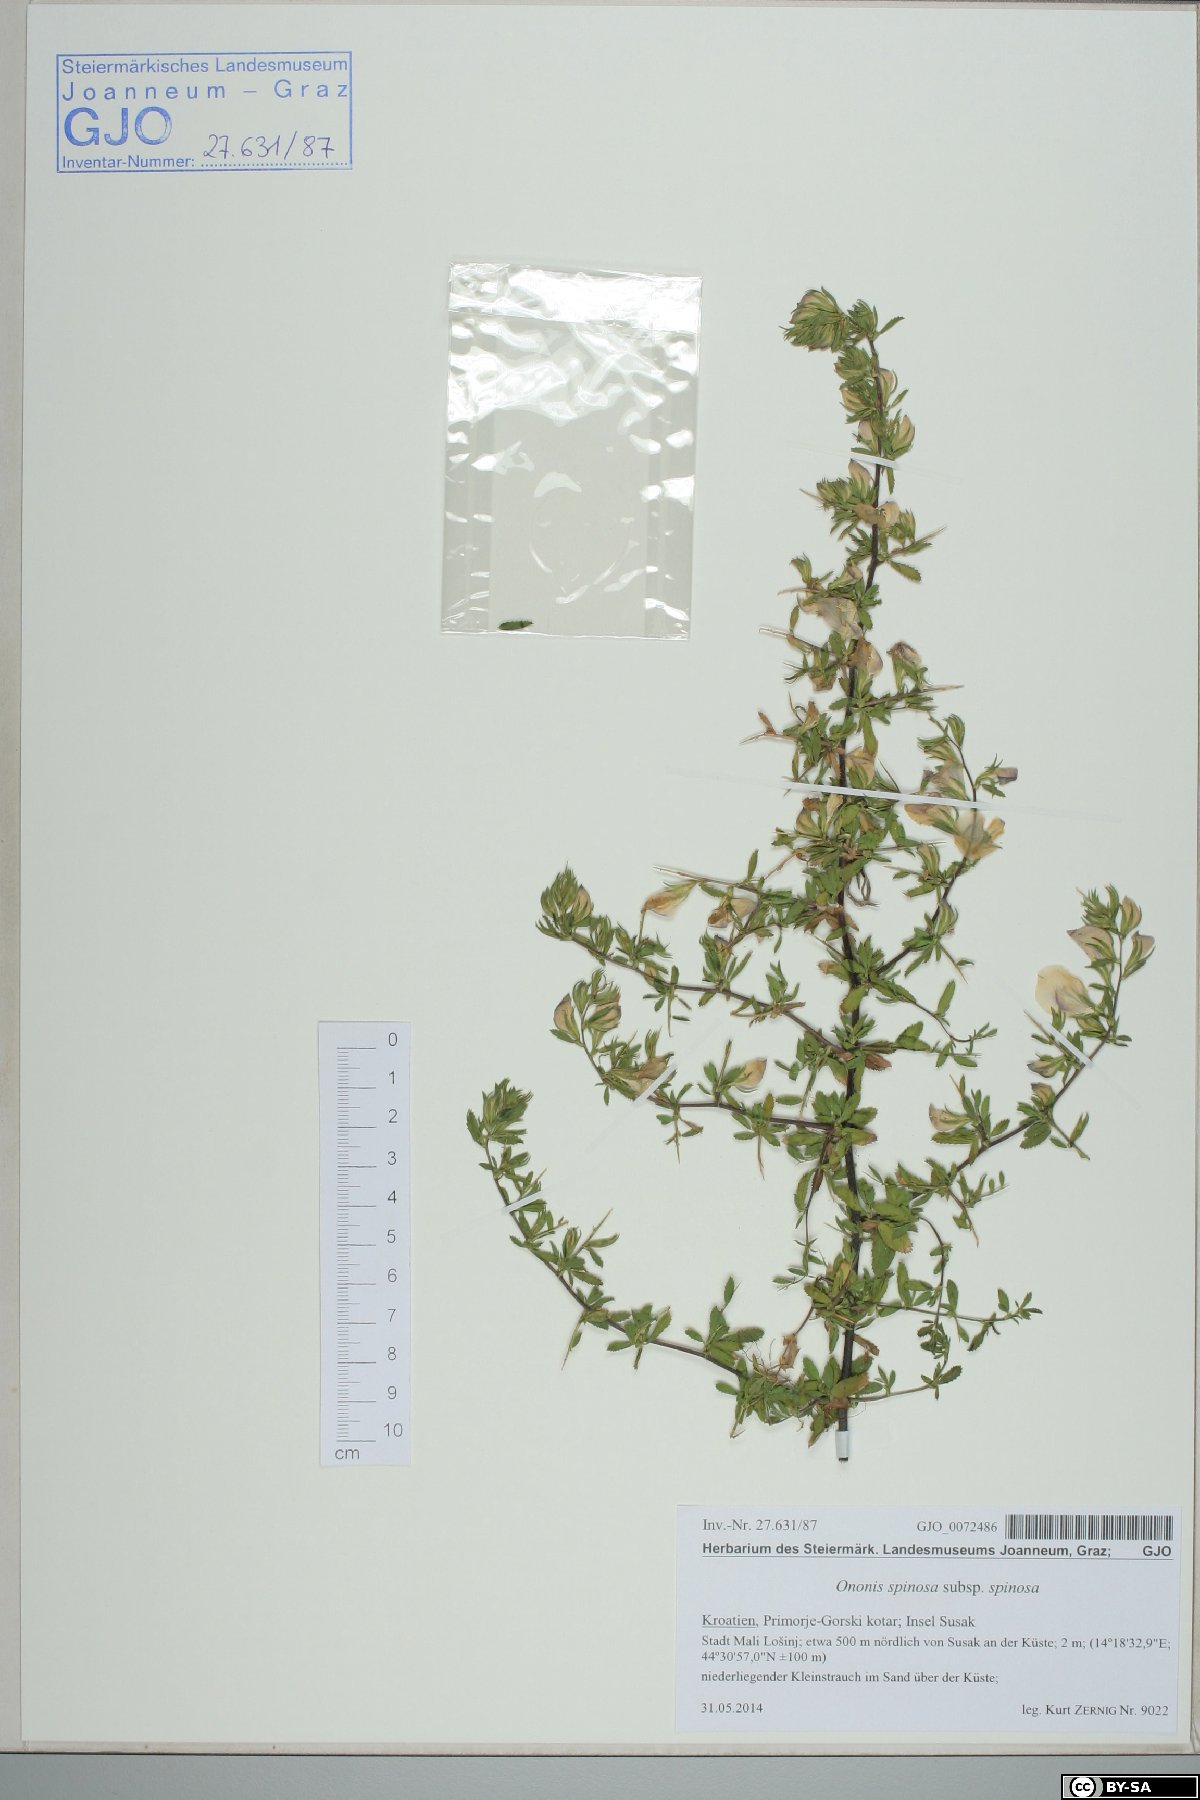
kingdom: Plantae
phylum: Tracheophyta
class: Magnoliopsida
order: Fabales
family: Fabaceae
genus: Ononis
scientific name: Ononis spinosa
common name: Spiny restharrow
